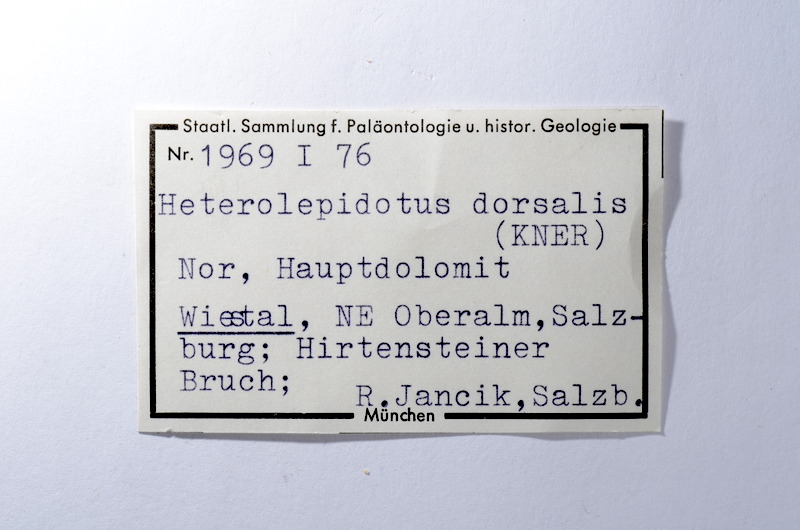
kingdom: Animalia
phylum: Chordata
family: Ophiopsiellidae
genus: Heterolepidotus
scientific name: Heterolepidotus Pholidophorus dorsalis
